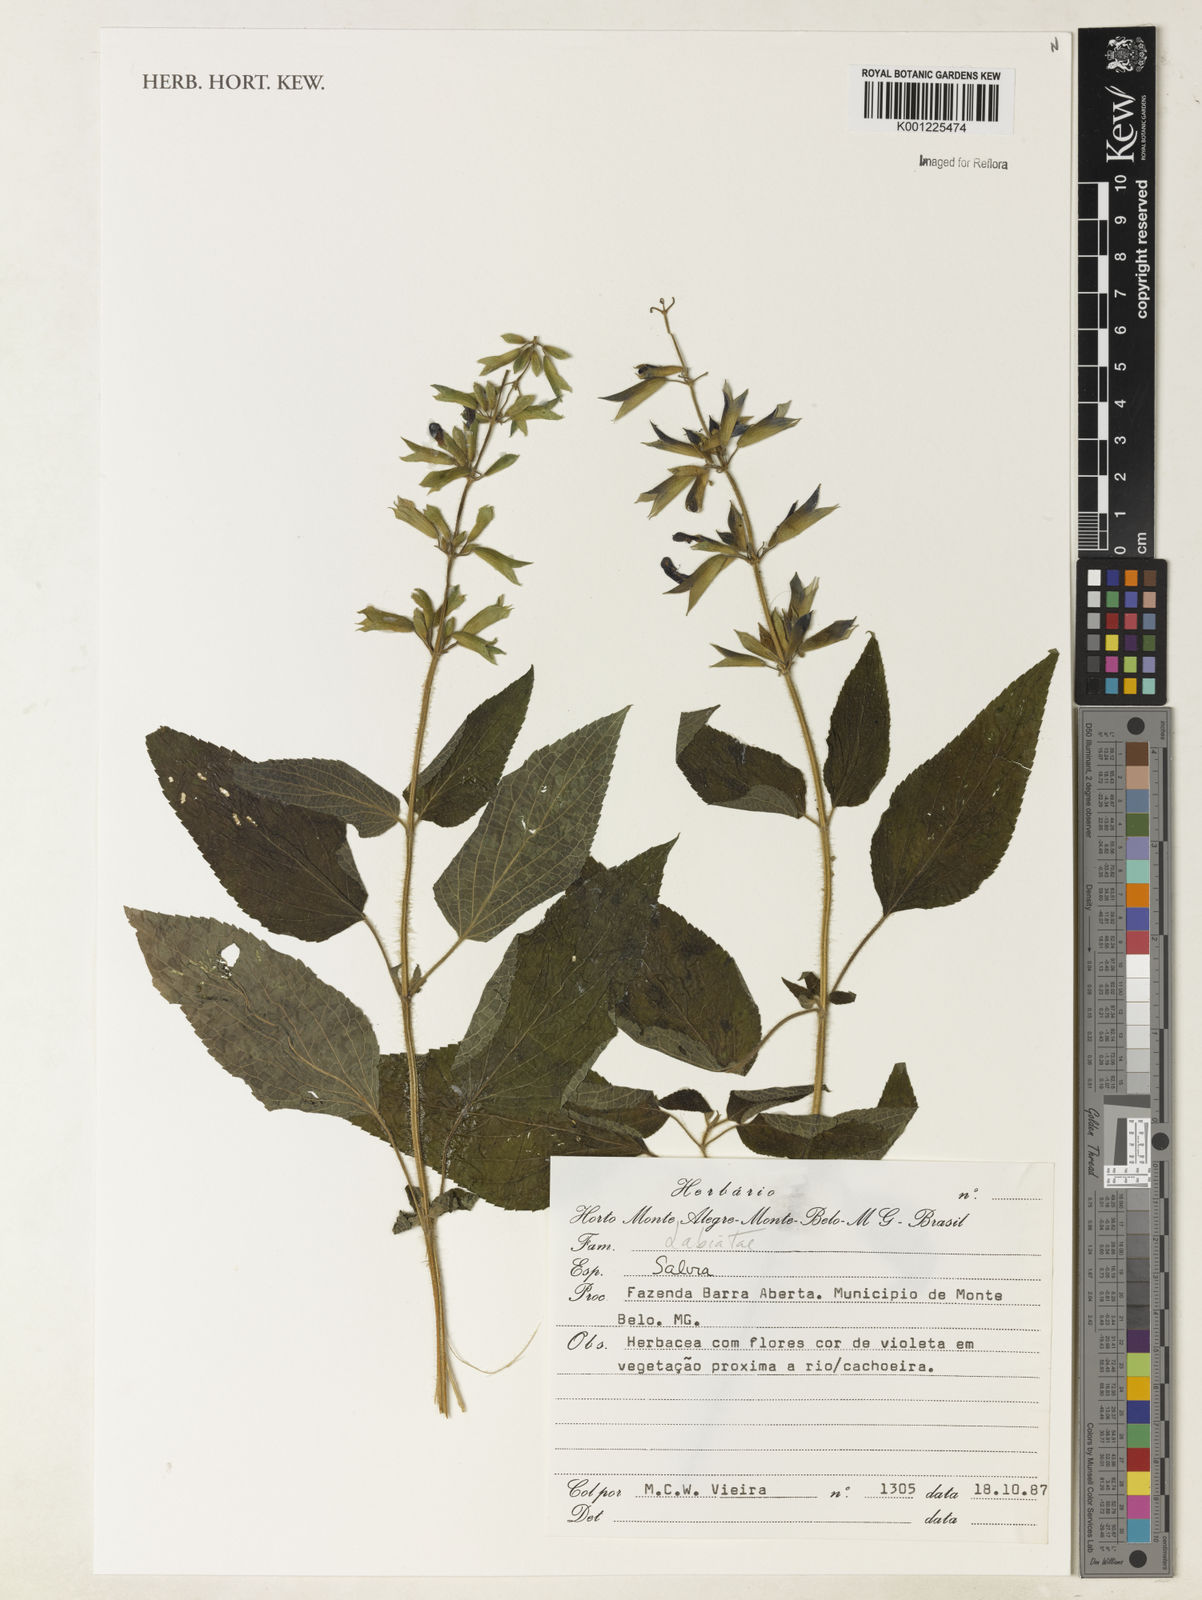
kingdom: Plantae
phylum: Tracheophyta
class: Magnoliopsida
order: Lamiales
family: Lamiaceae
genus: Salvia
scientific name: Salvia
